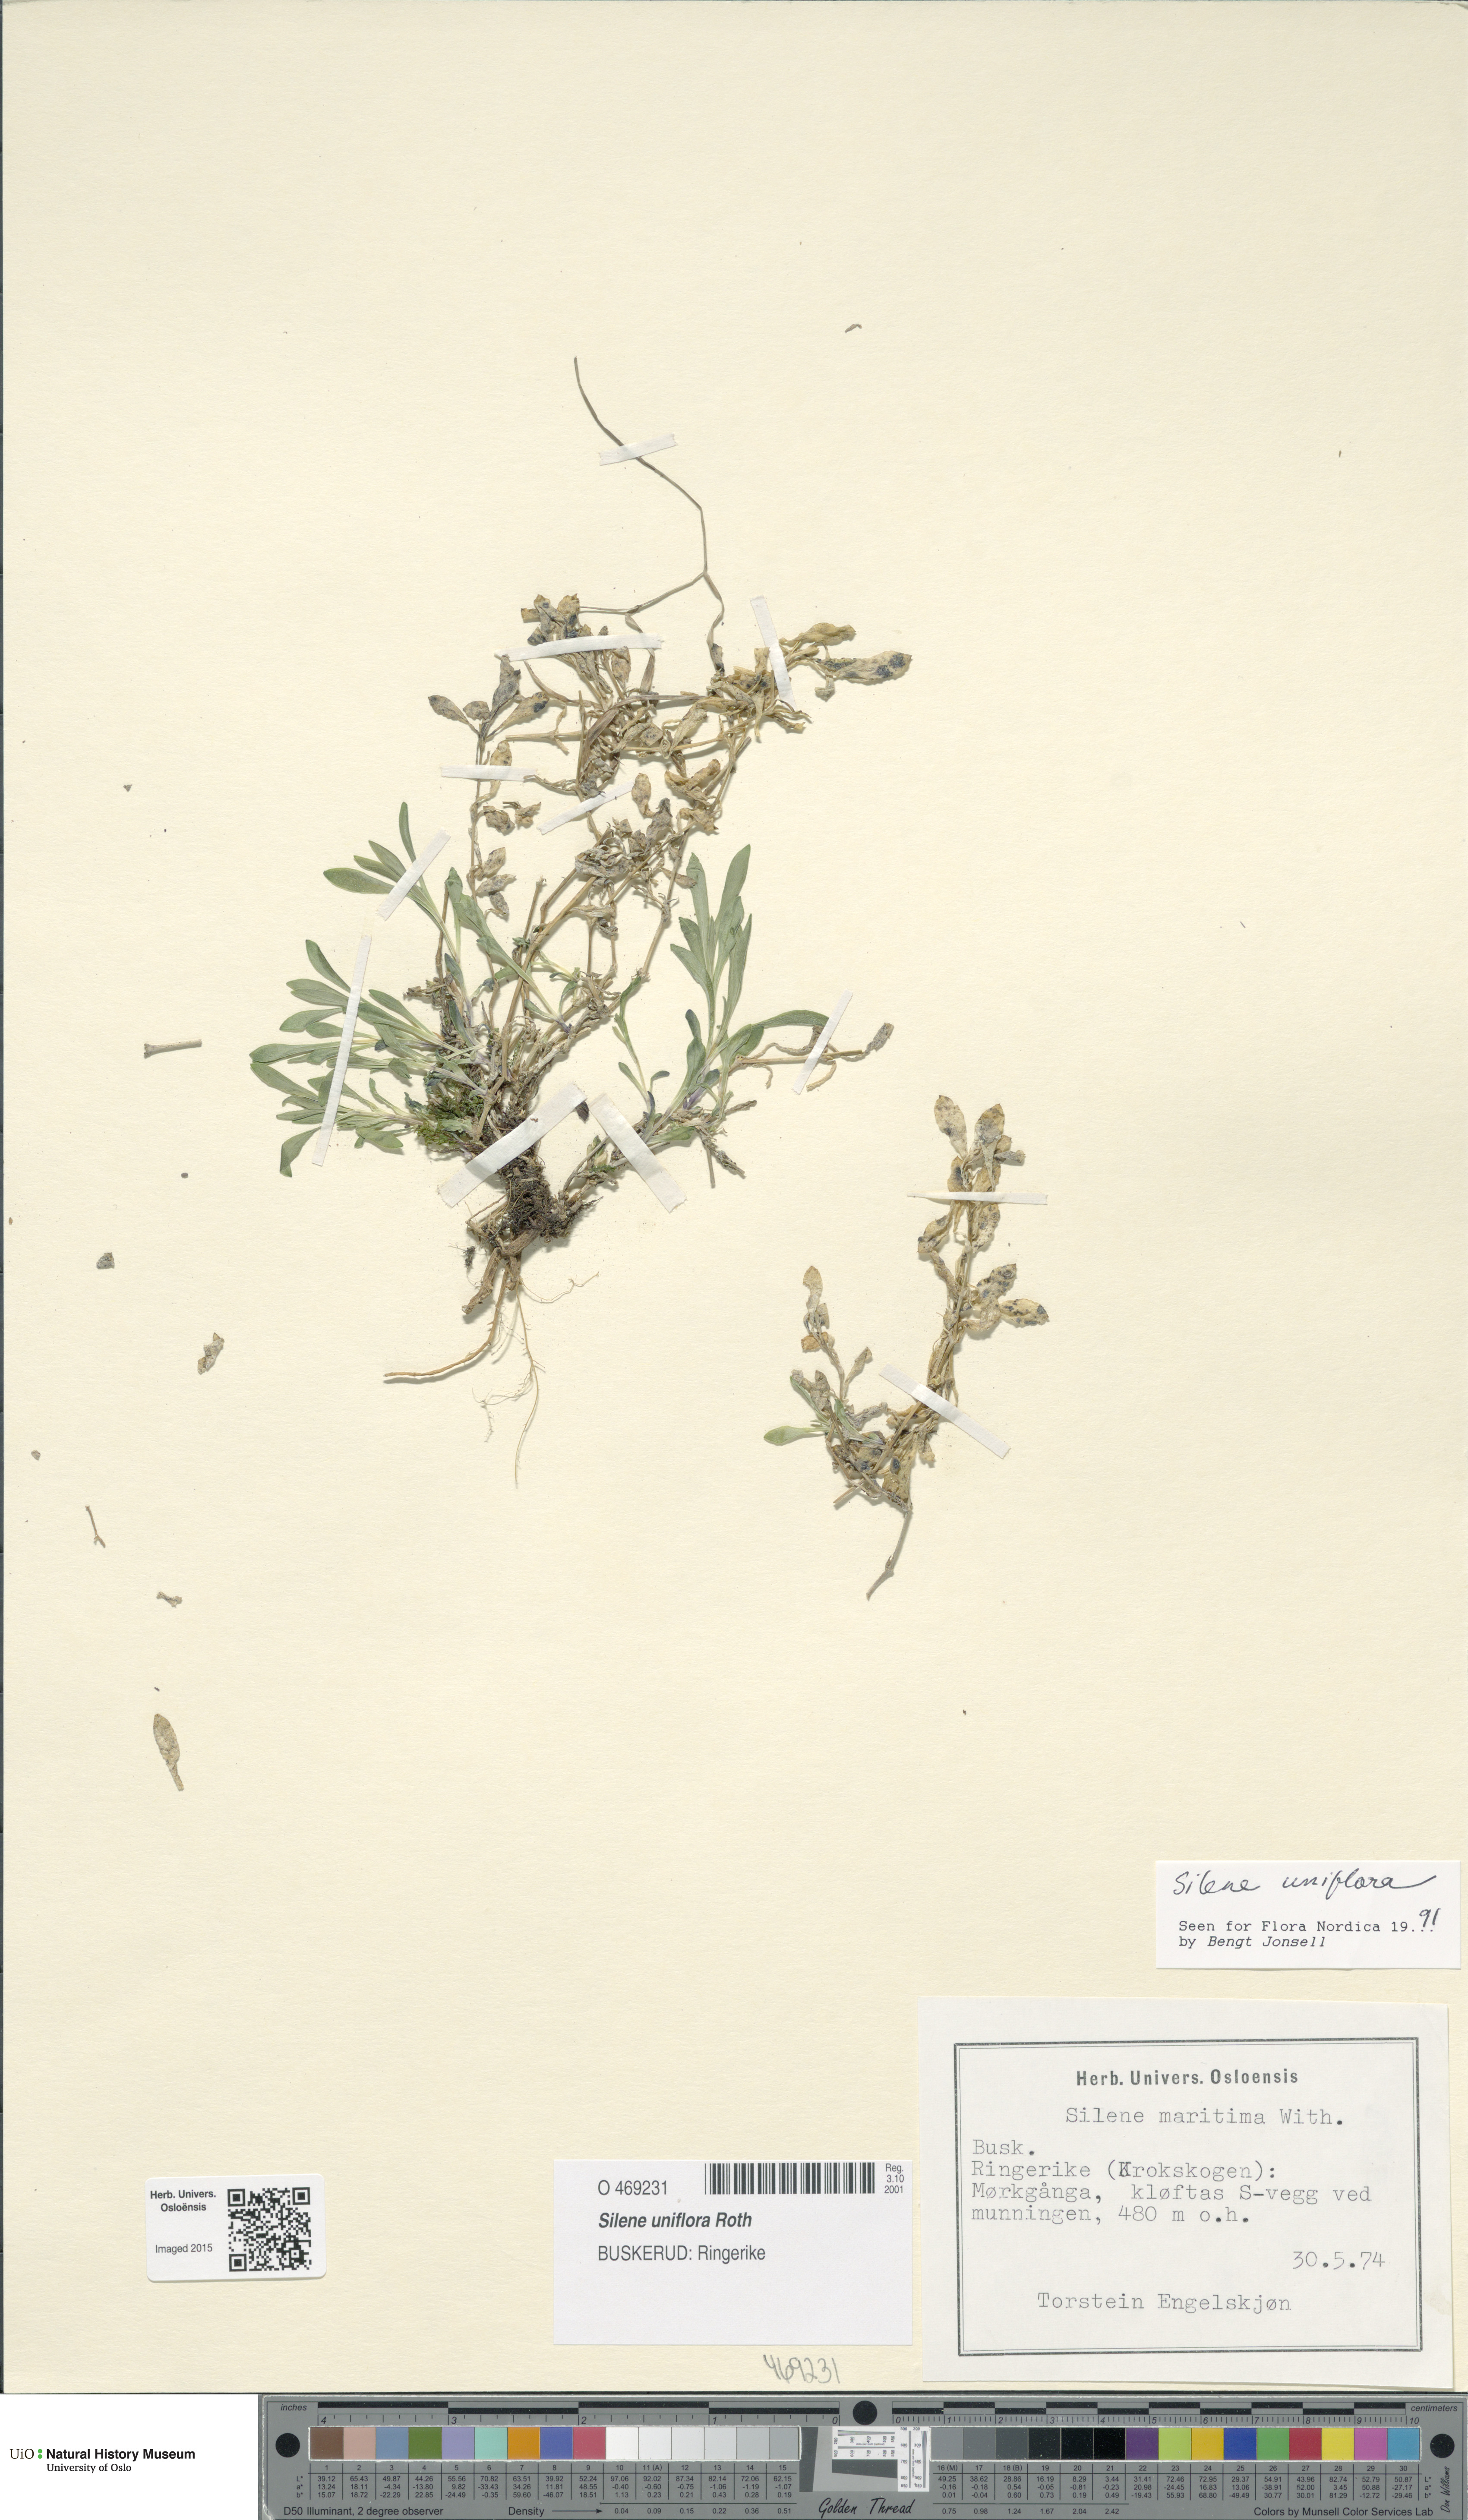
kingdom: Plantae
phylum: Tracheophyta
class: Magnoliopsida
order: Caryophyllales
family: Caryophyllaceae
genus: Silene
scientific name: Silene uniflora
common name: Sea campion
